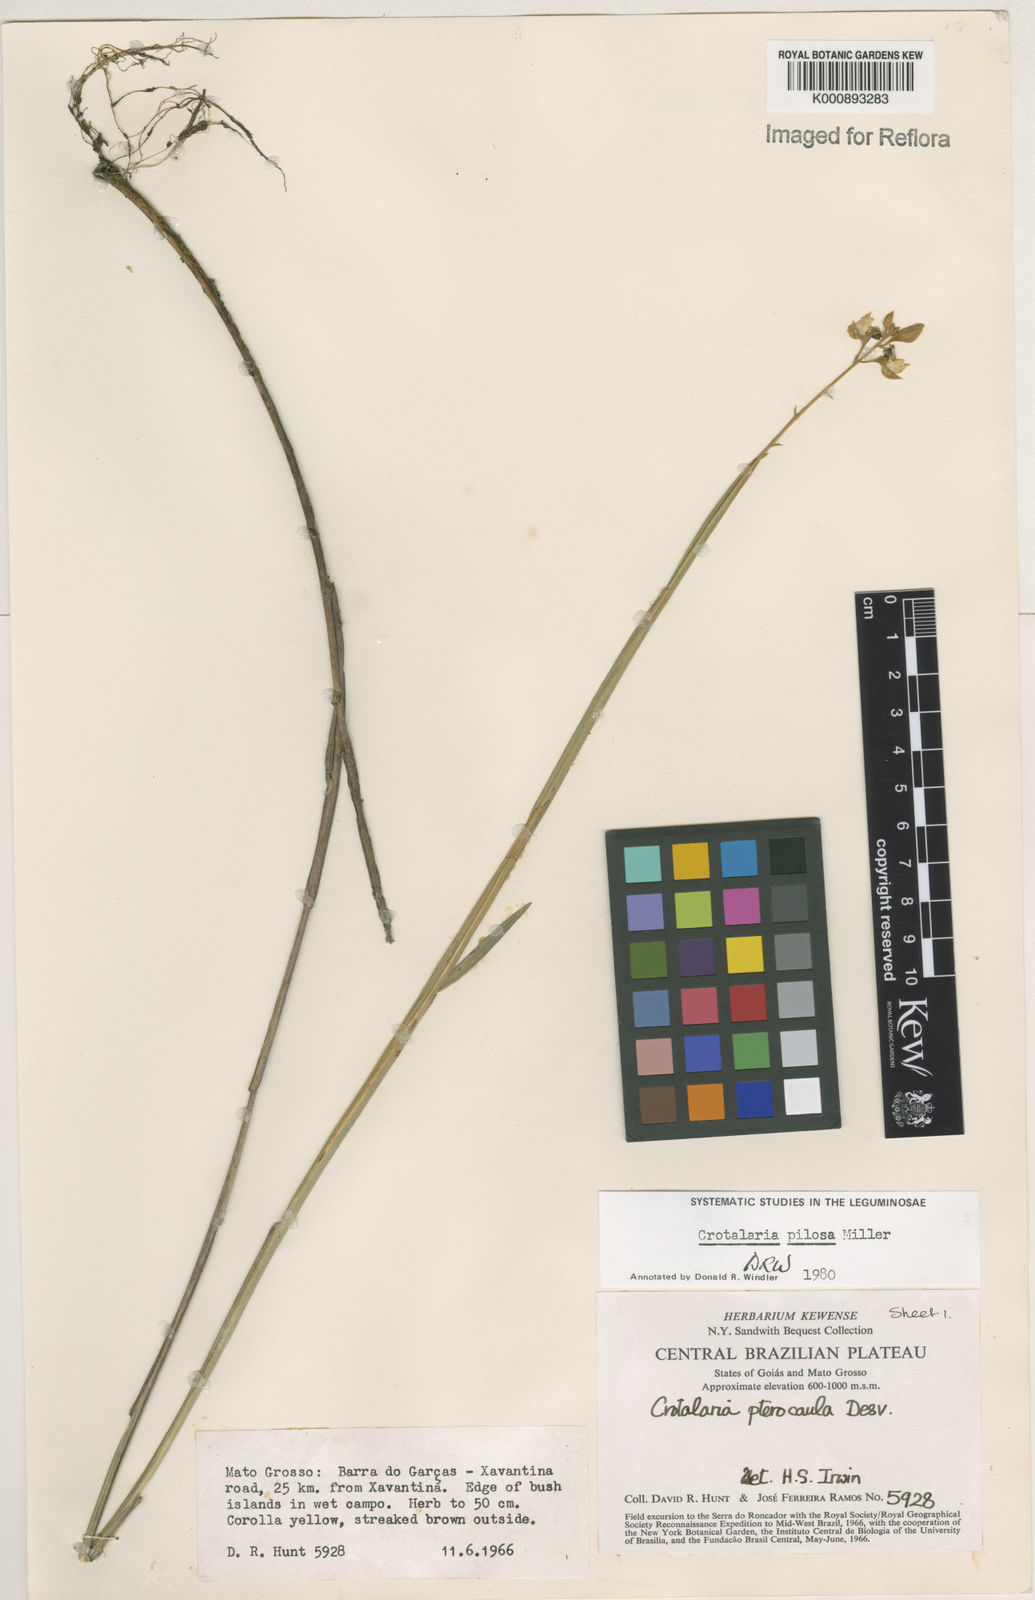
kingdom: Plantae
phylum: Tracheophyta
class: Magnoliopsida
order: Fabales
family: Fabaceae
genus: Crotalaria
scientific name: Crotalaria pilosa
